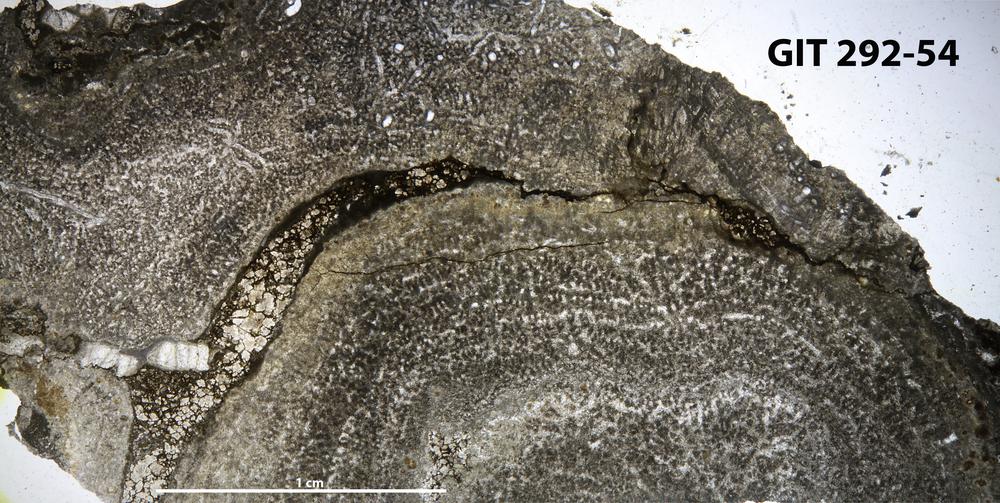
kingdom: Animalia
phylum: Porifera
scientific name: Porifera
